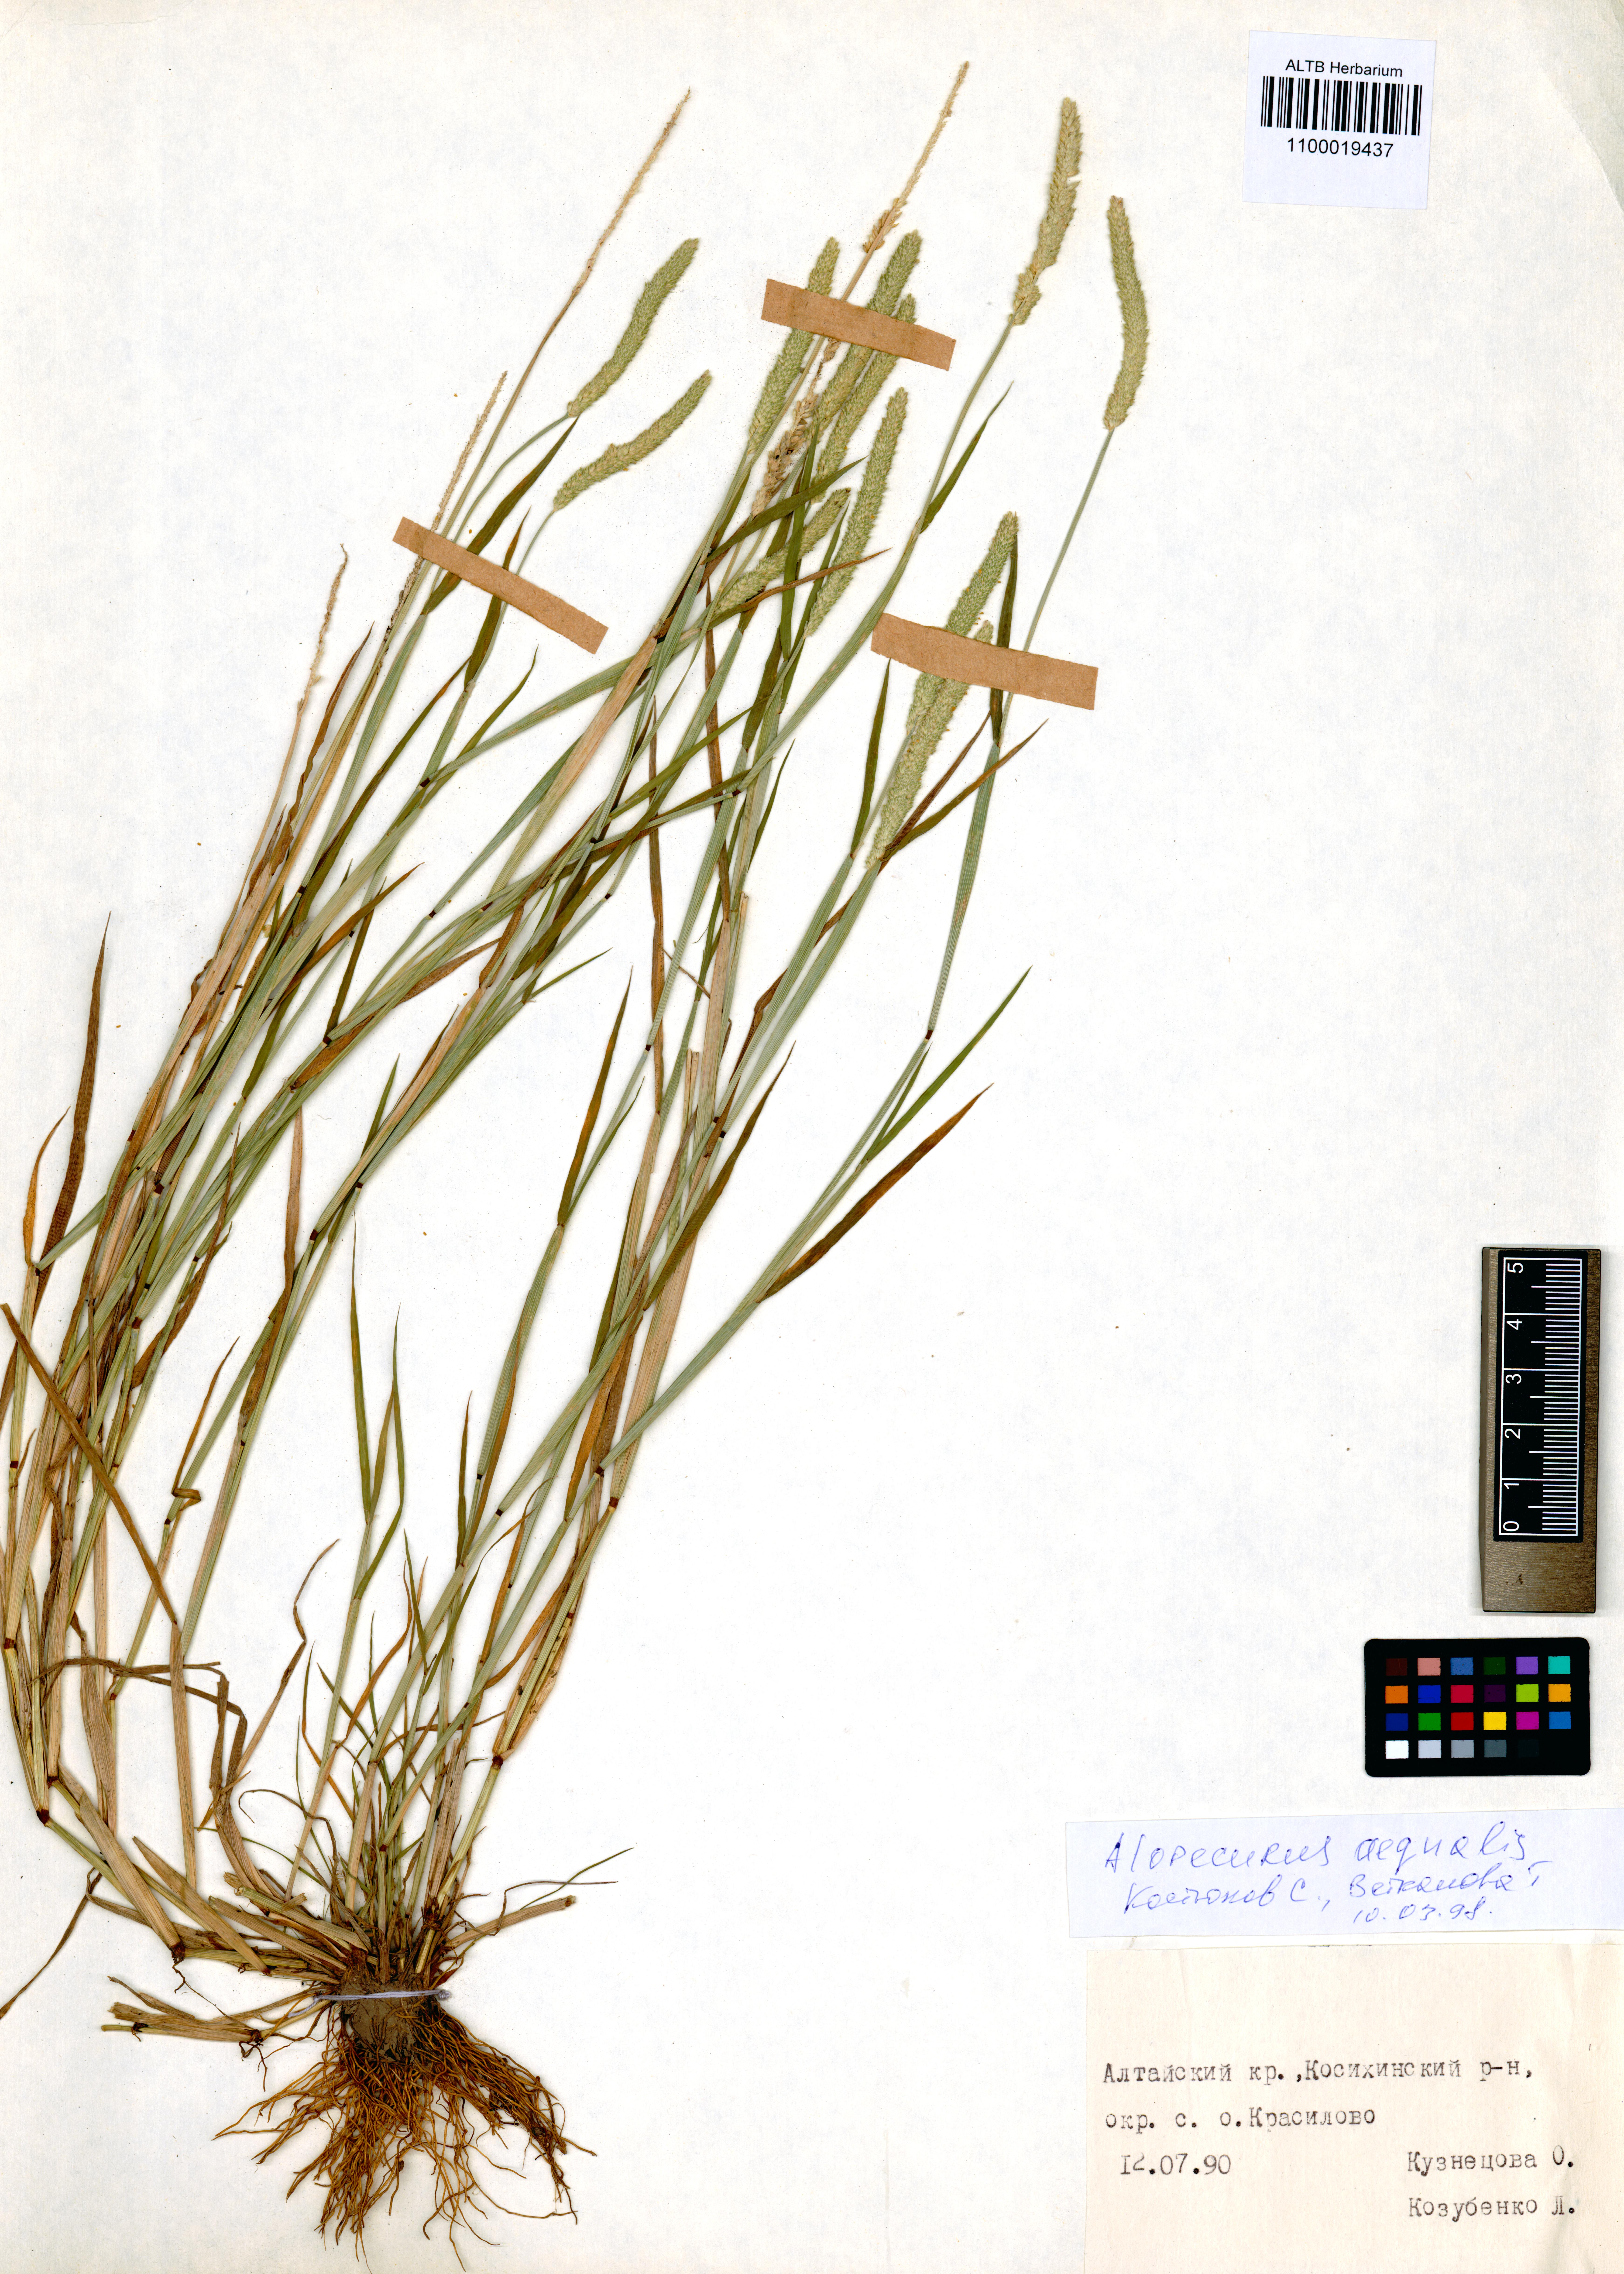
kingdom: Plantae
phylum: Tracheophyta
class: Liliopsida
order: Poales
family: Poaceae
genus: Alopecurus
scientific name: Alopecurus aequalis
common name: Orange foxtail
